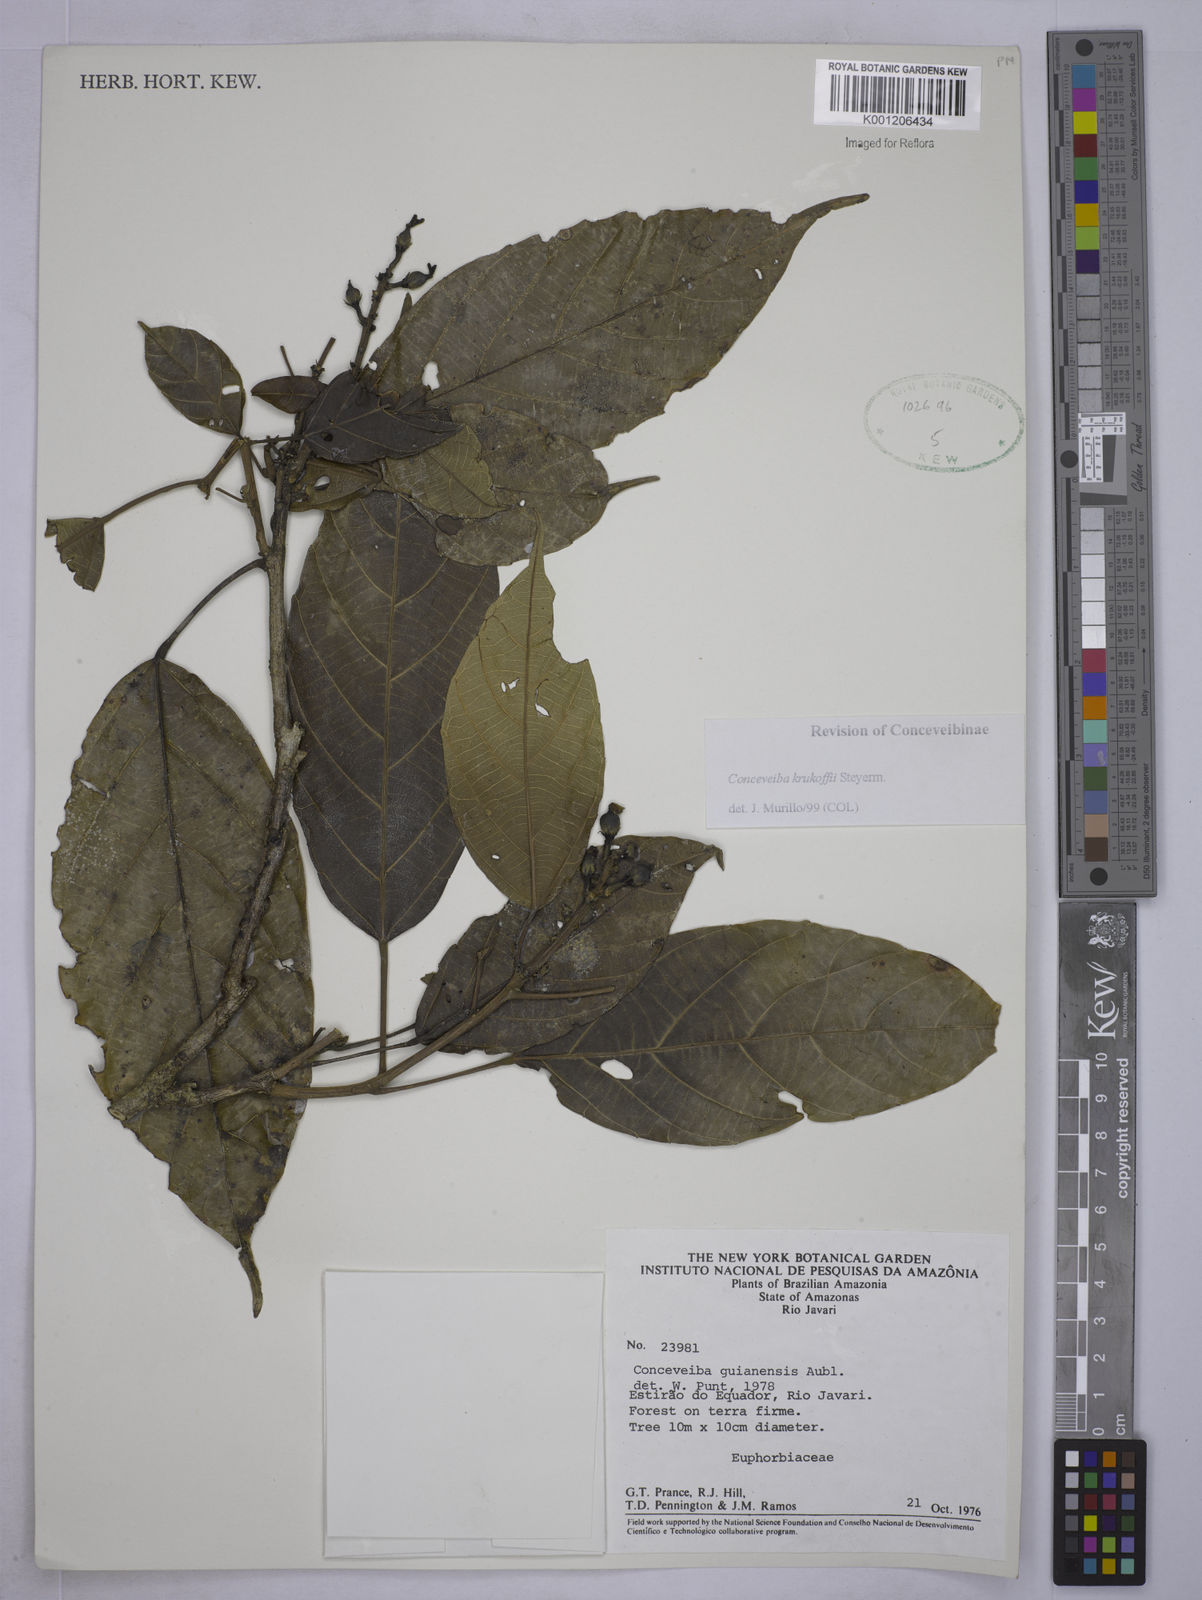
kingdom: Plantae
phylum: Tracheophyta
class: Magnoliopsida
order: Malpighiales
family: Euphorbiaceae
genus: Conceveiba
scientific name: Conceveiba krukoffii
